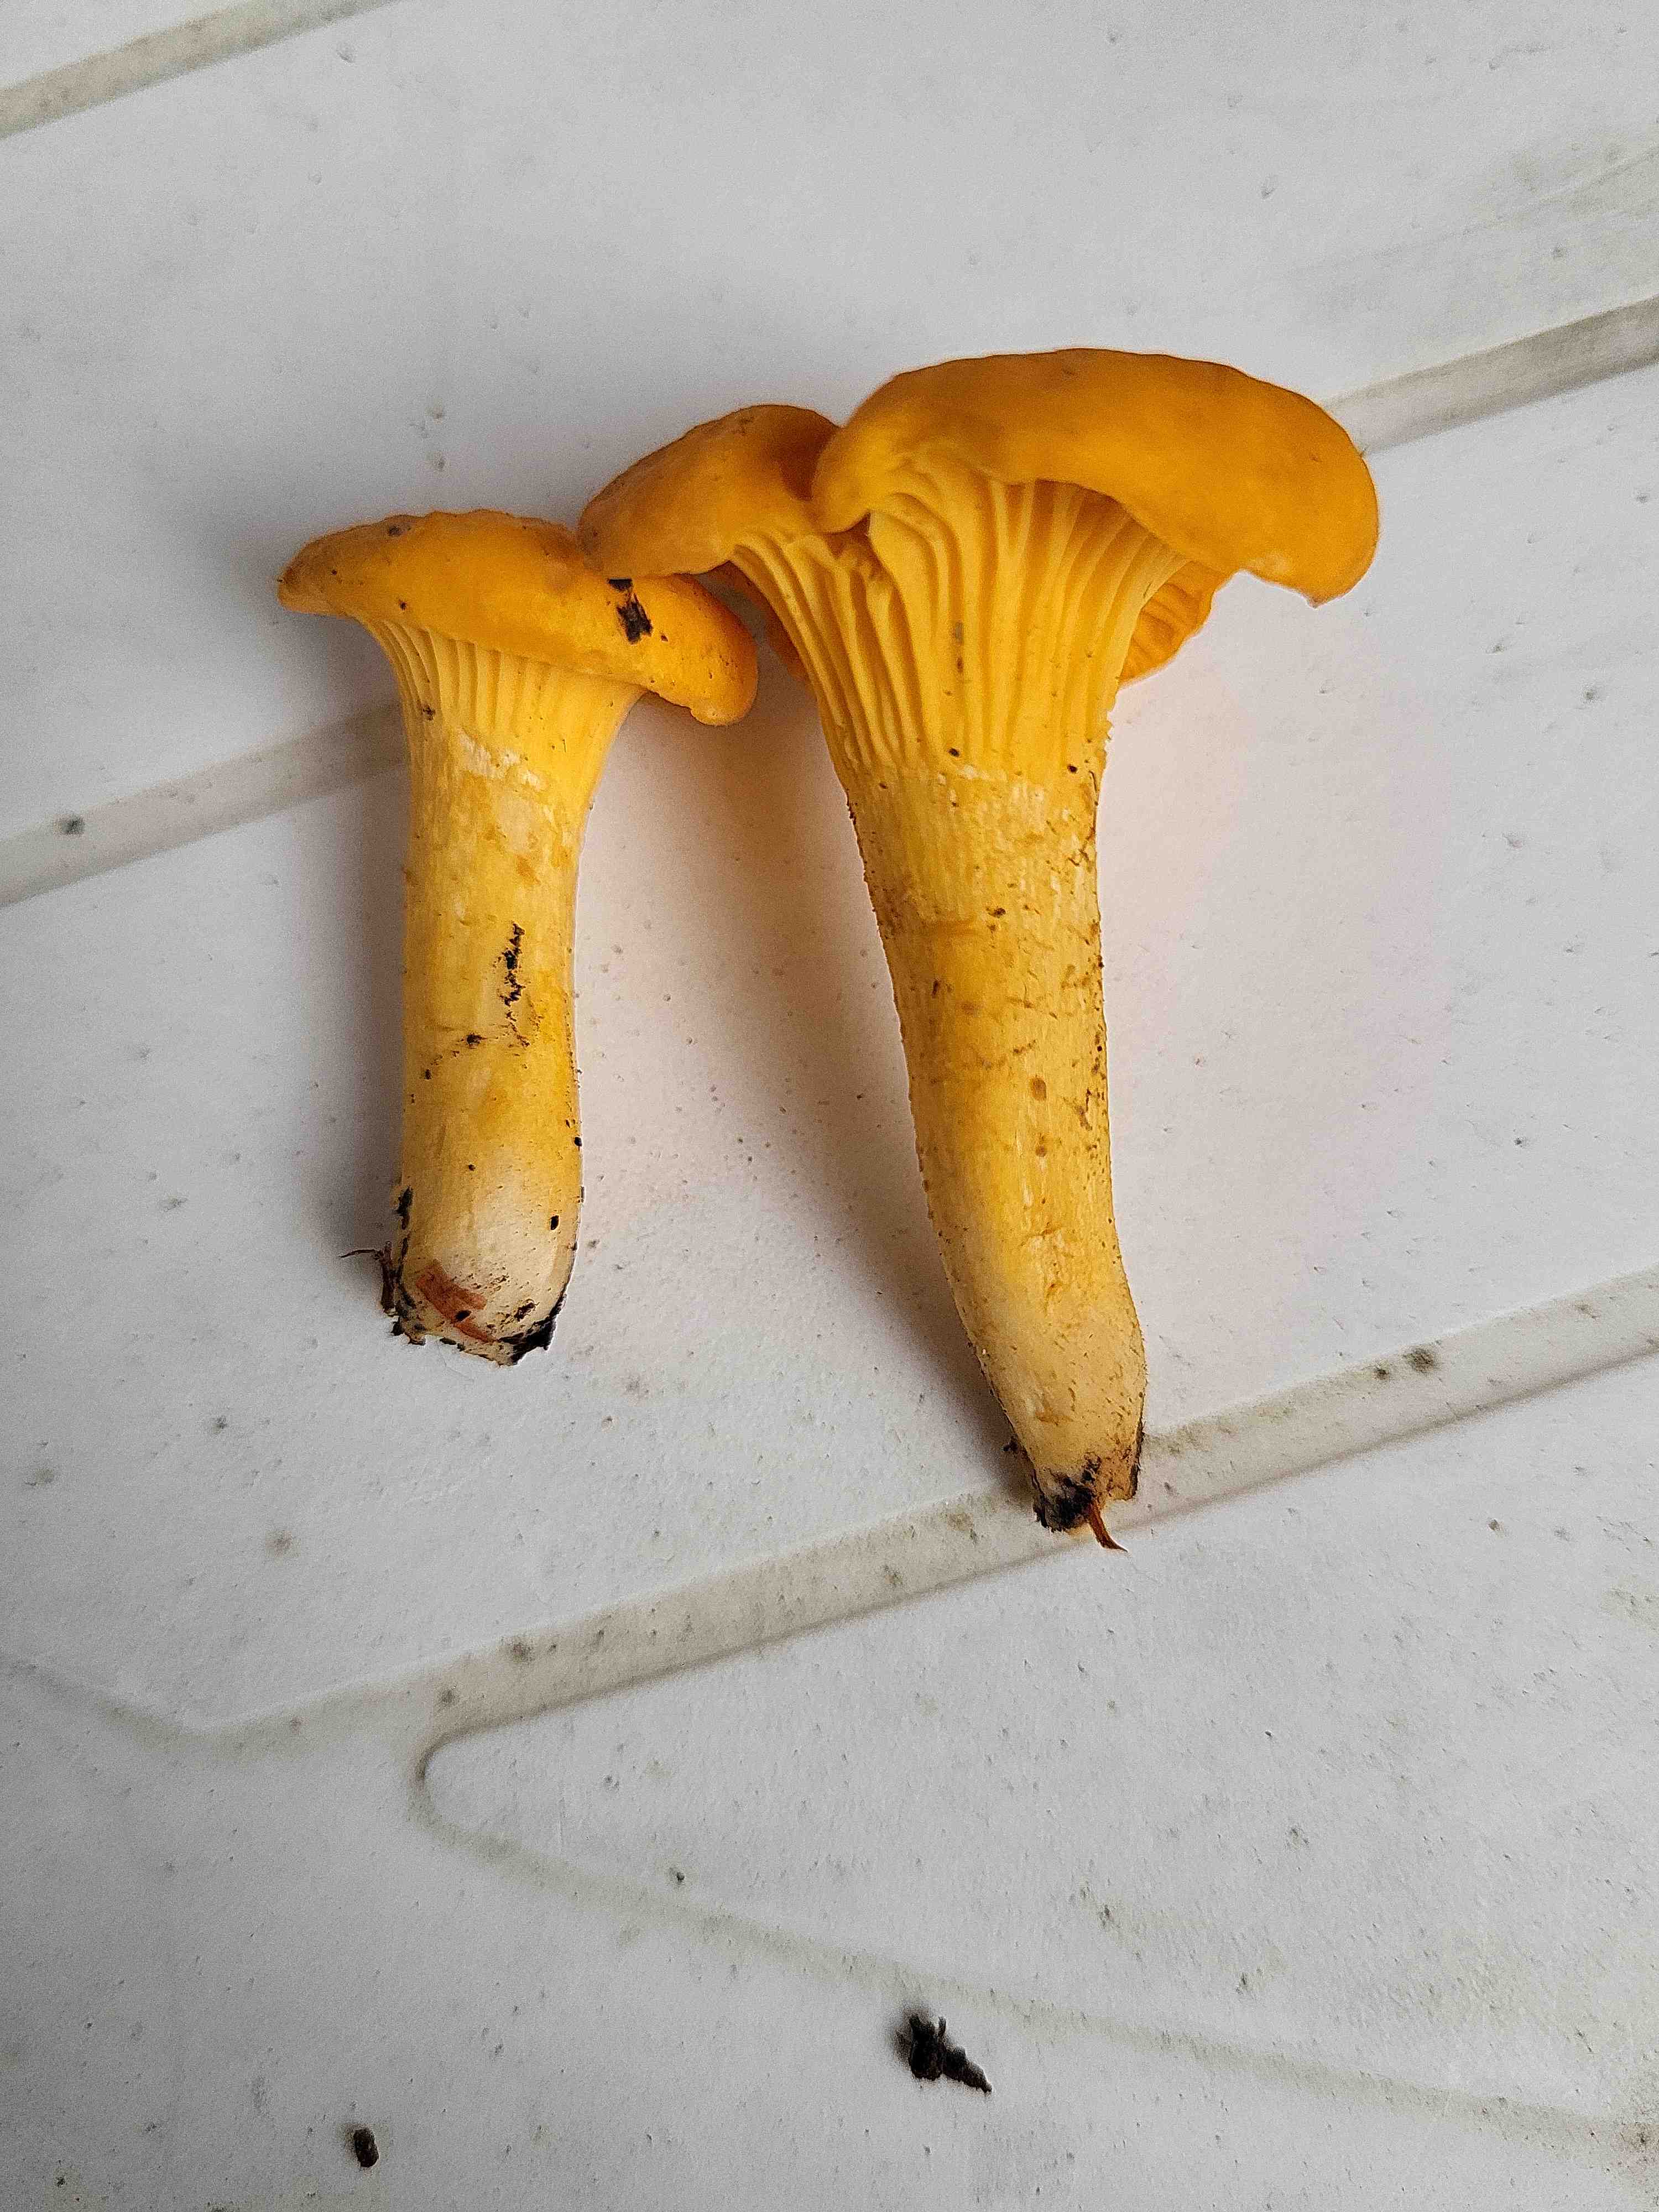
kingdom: Fungi
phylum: Basidiomycota
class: Agaricomycetes
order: Cantharellales
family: Hydnaceae
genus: Cantharellus
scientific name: Cantharellus cibarius
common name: almindelig kantarel
